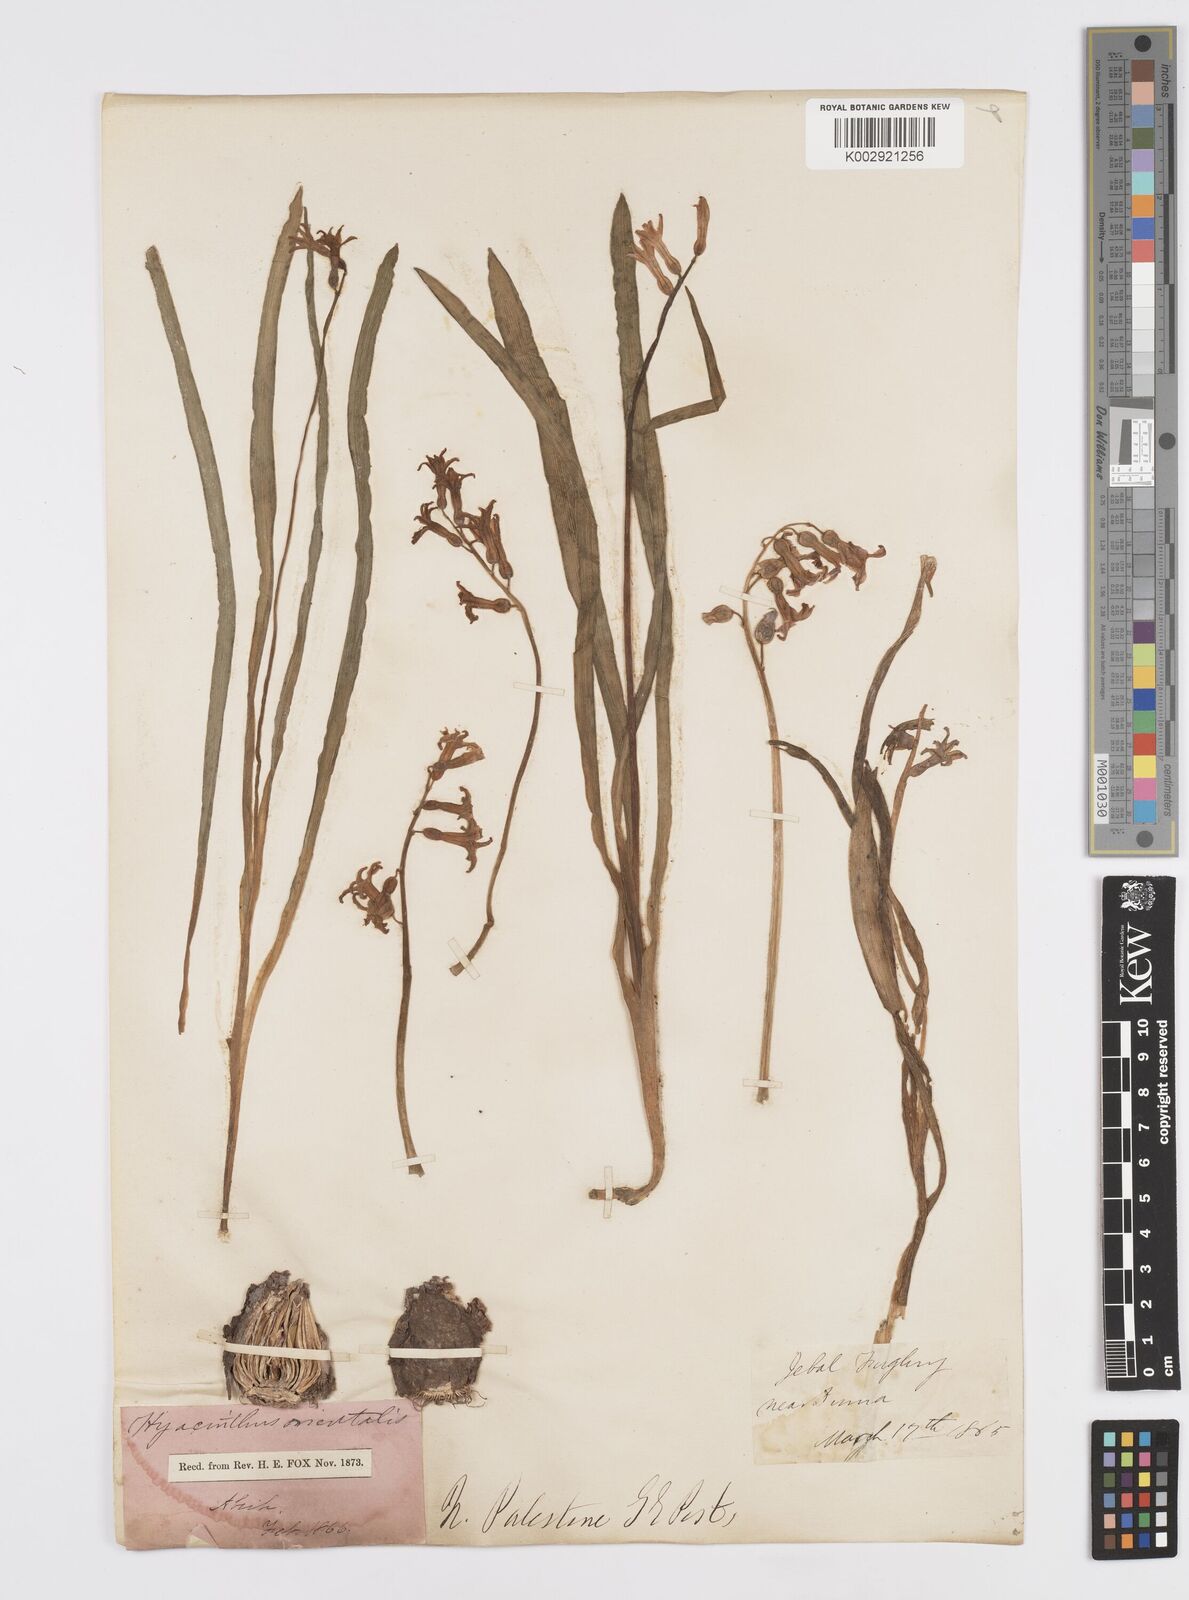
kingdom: Plantae
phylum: Tracheophyta
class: Liliopsida
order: Asparagales
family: Asparagaceae
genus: Hyacinthus
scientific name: Hyacinthus orientalis
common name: Hyacinth
